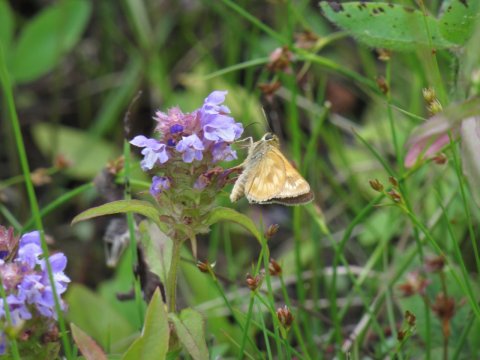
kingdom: Animalia
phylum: Arthropoda
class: Insecta
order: Lepidoptera
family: Hesperiidae
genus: Polites
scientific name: Polites
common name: Long Dash Skipper
